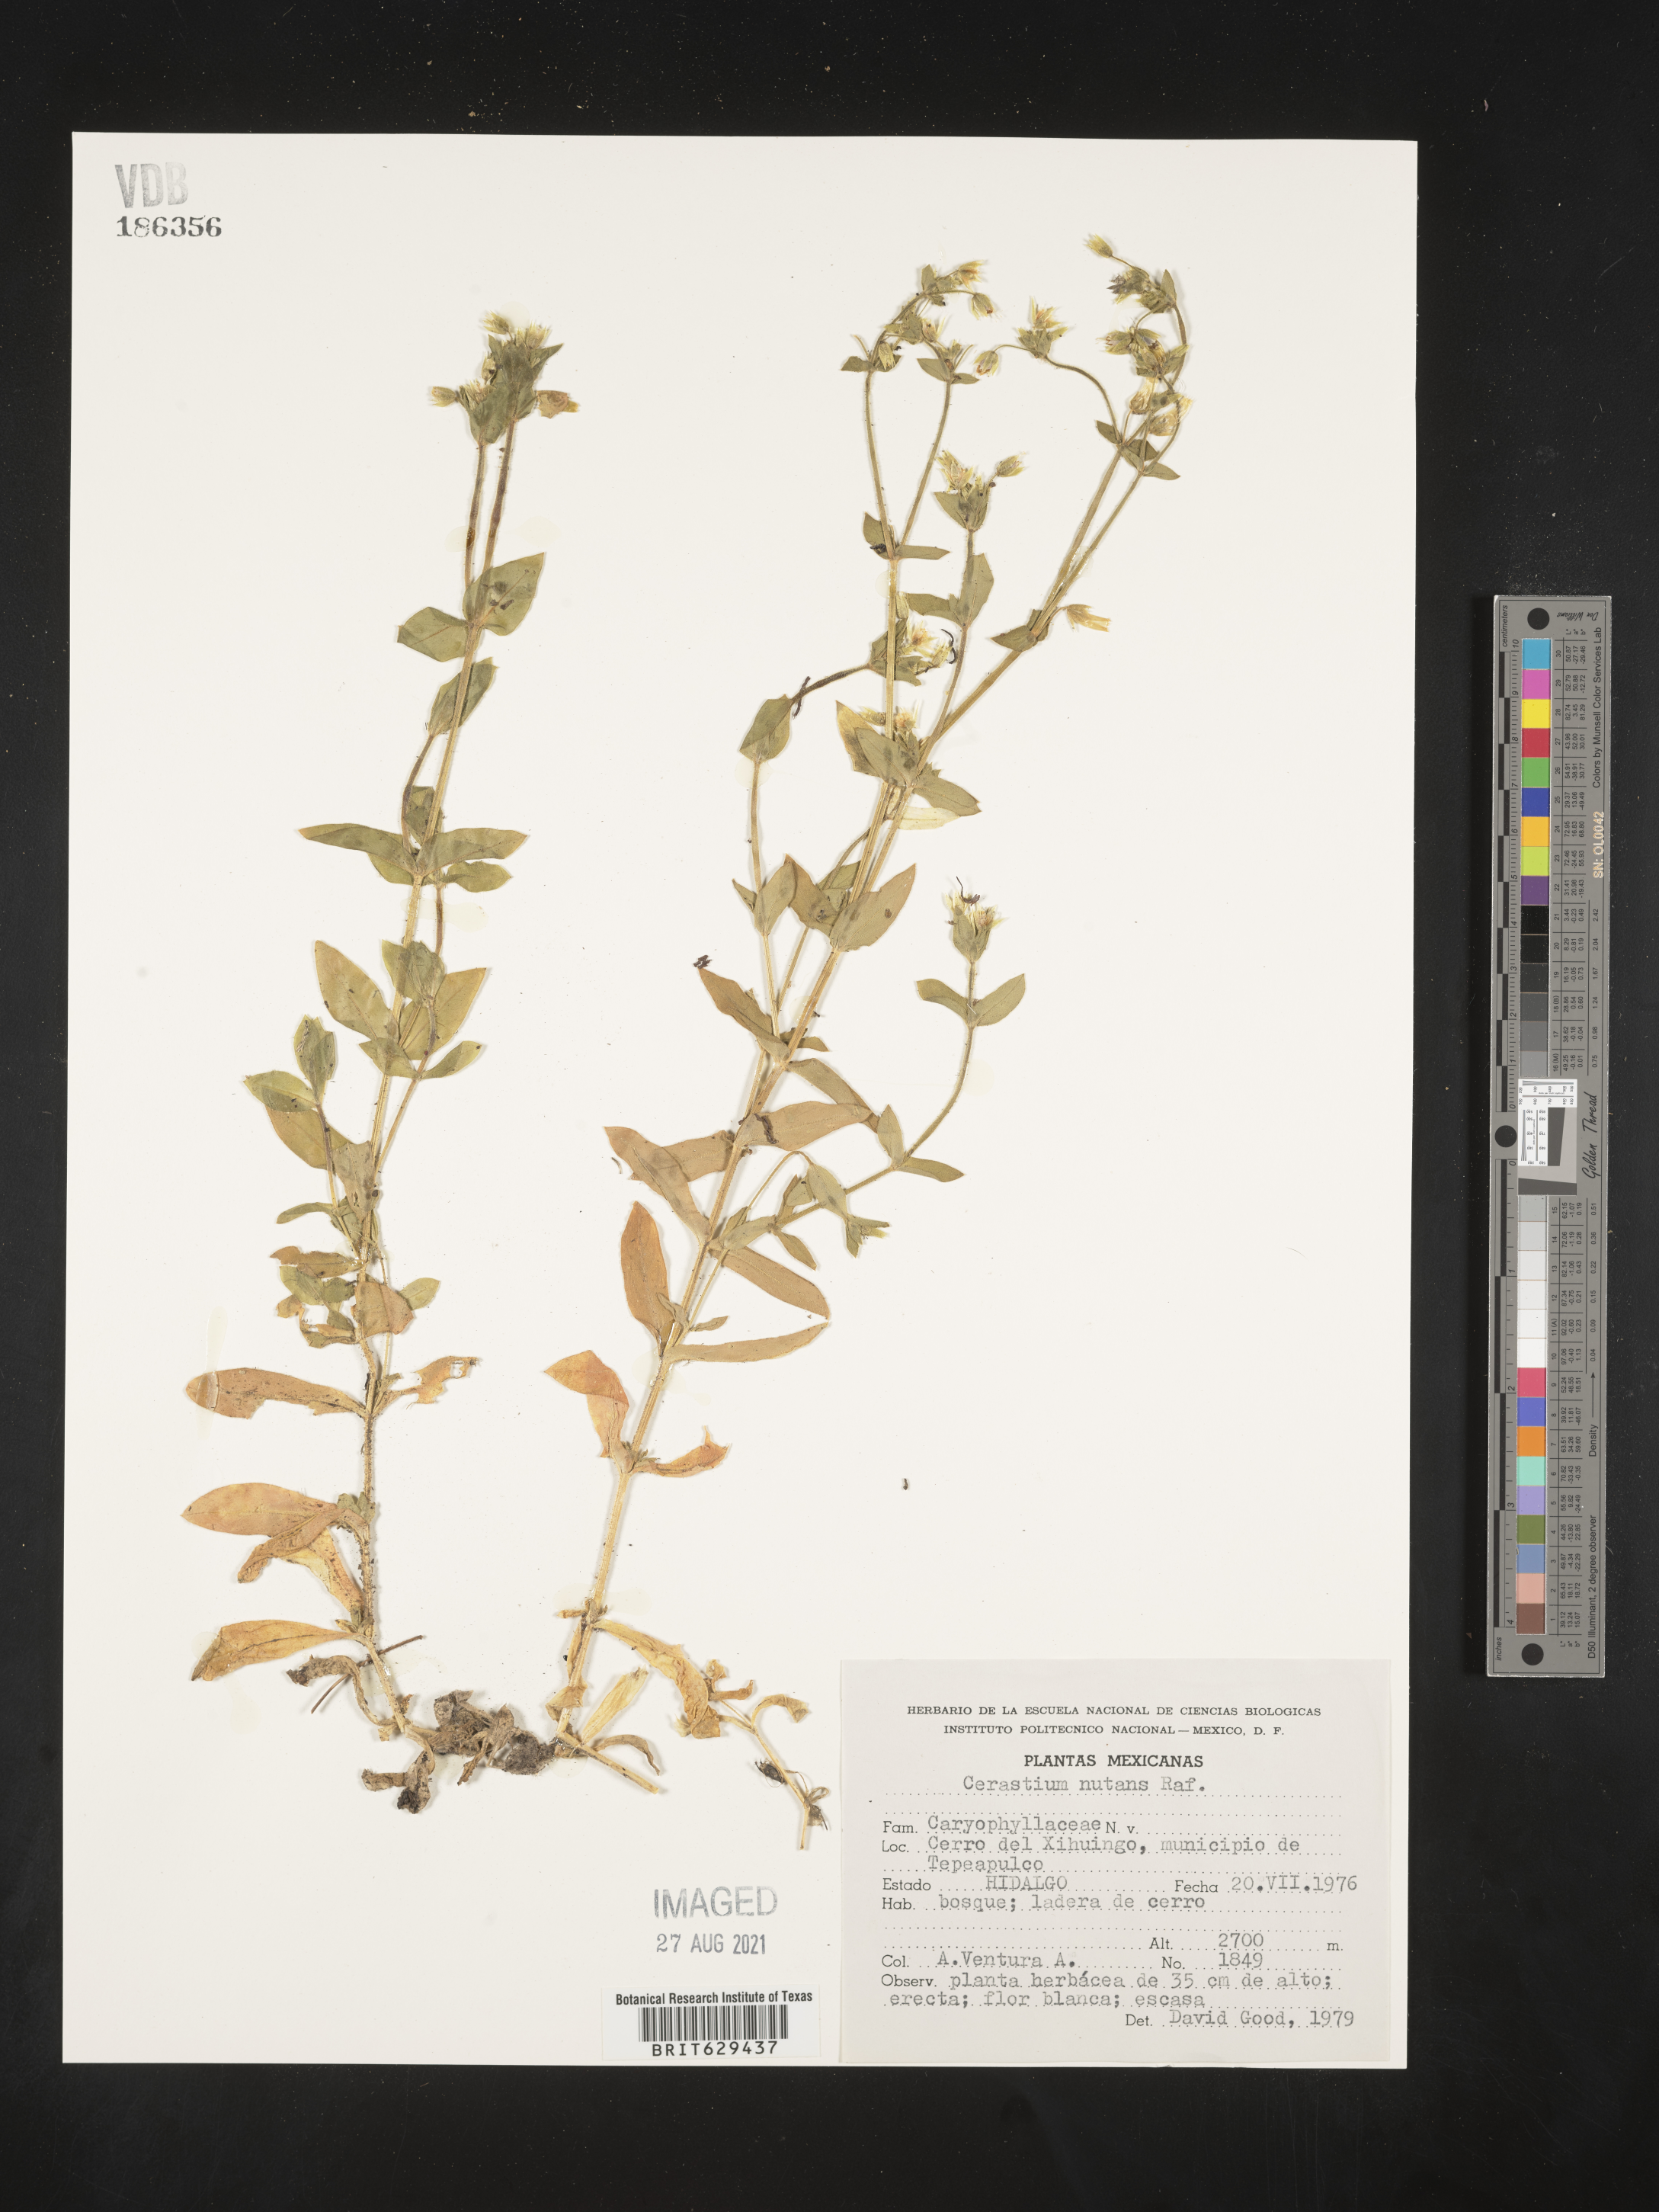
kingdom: Plantae
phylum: Tracheophyta
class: Magnoliopsida
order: Caryophyllales
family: Caryophyllaceae
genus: Cerastium
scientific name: Cerastium
